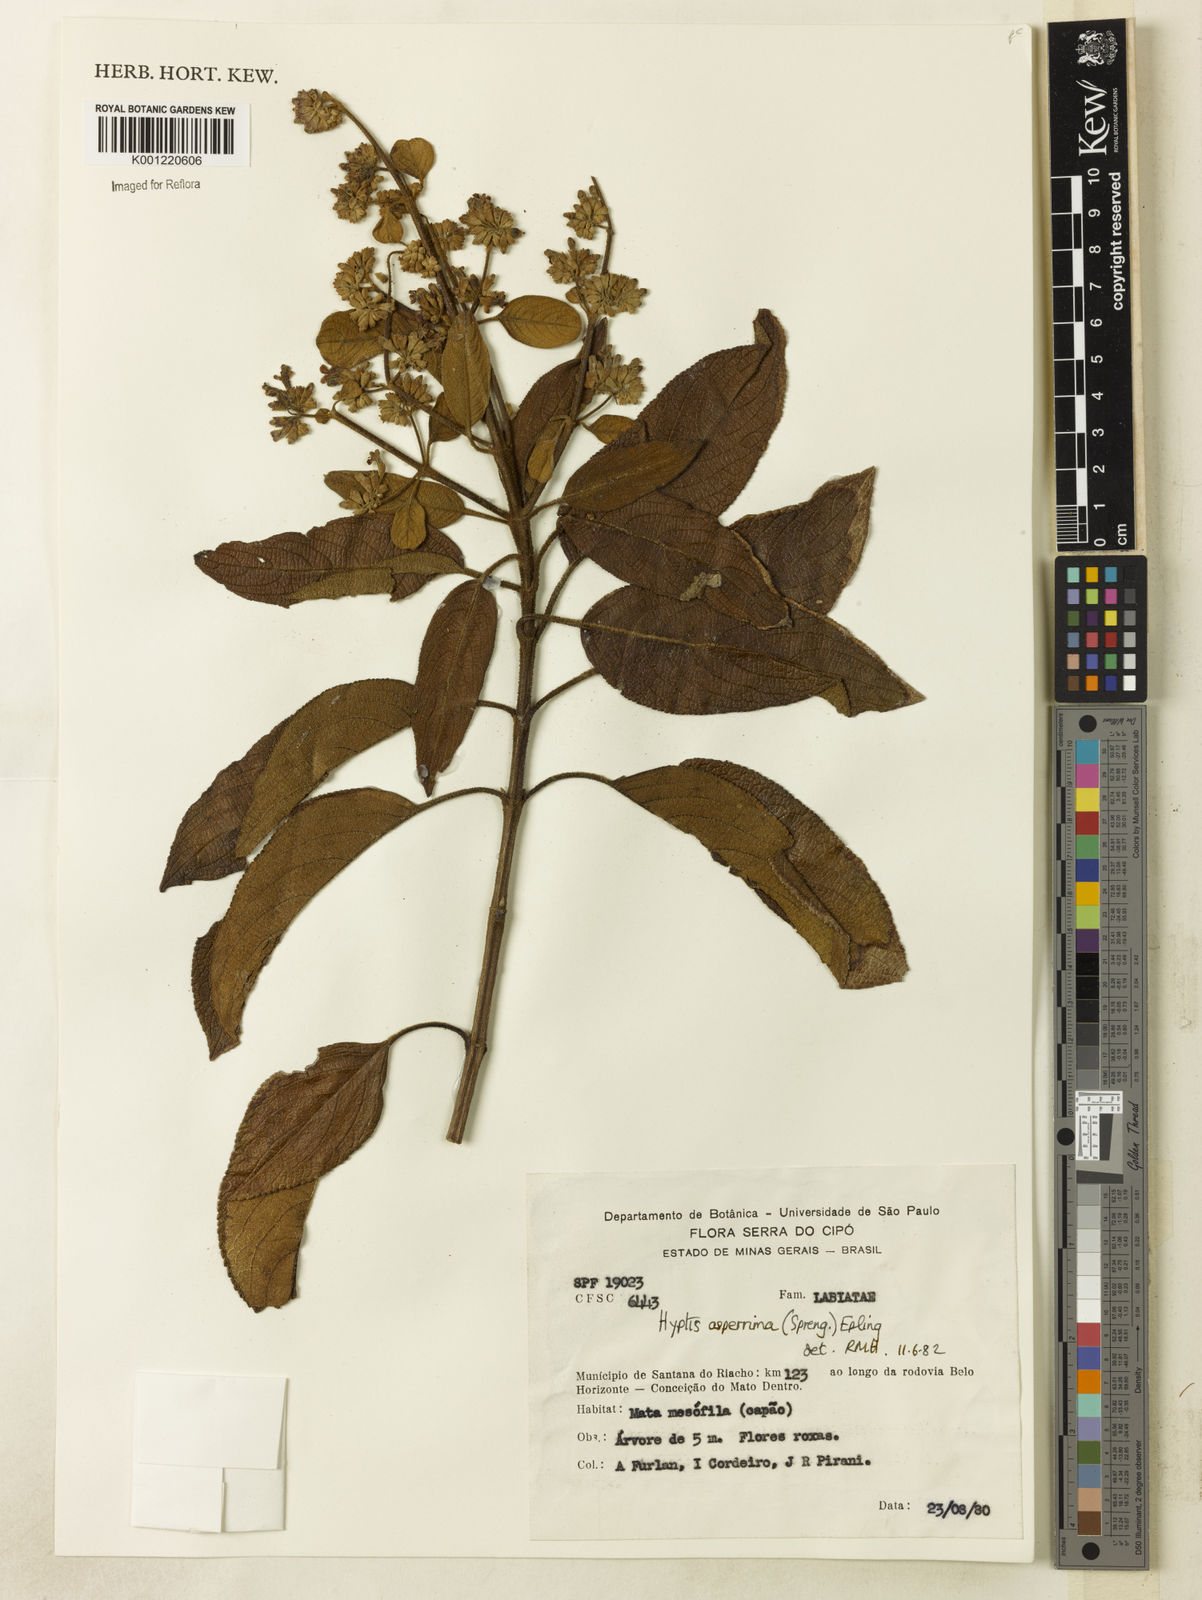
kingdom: Plantae
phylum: Tracheophyta
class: Magnoliopsida
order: Lamiales
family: Lamiaceae
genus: Hyptidendron
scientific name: Hyptidendron asperrimum
